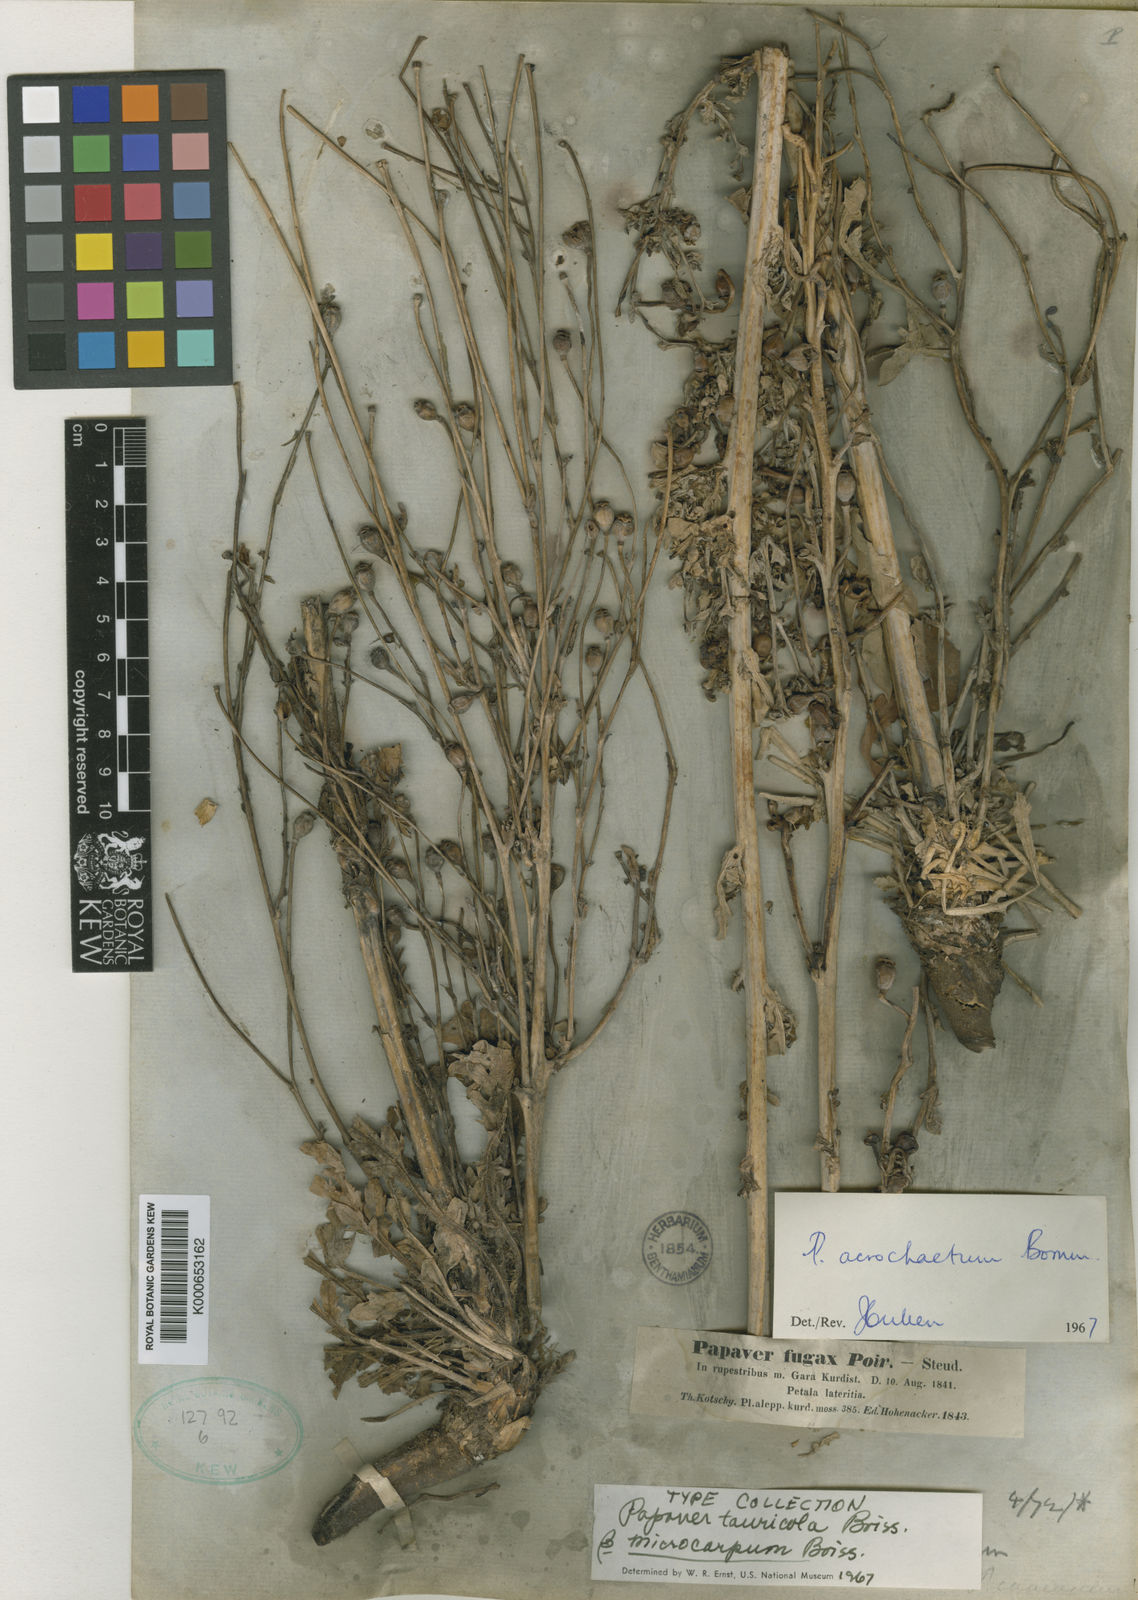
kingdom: Plantae
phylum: Tracheophyta
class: Magnoliopsida
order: Ranunculales
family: Papaveraceae
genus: Papaver
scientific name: Papaver acrochaetum
